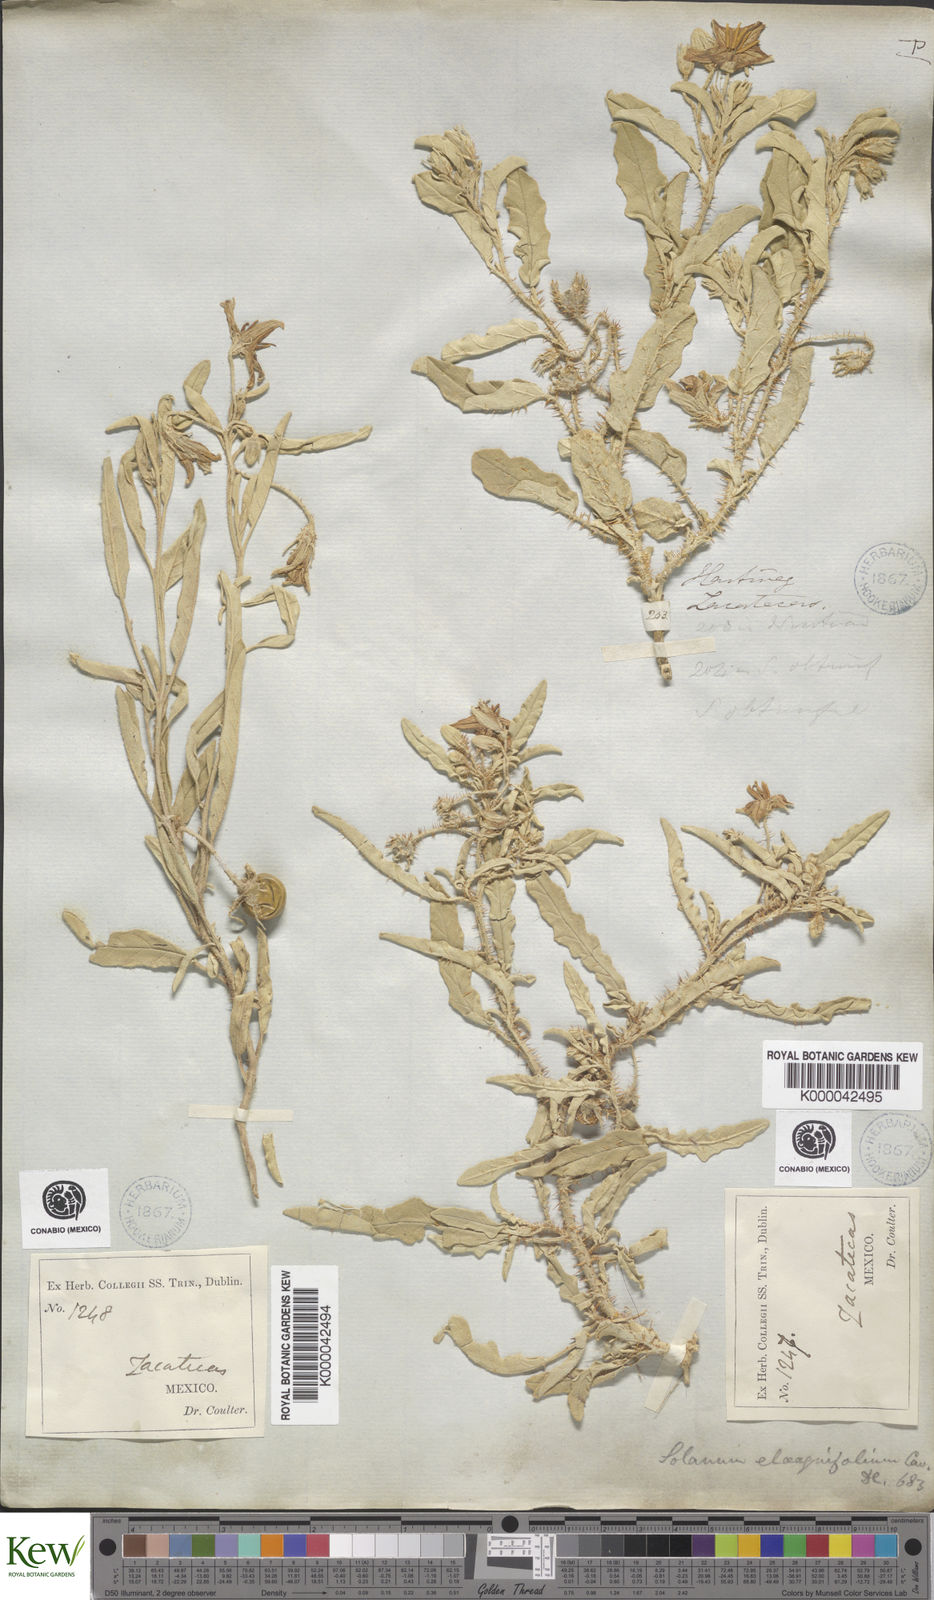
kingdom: Plantae
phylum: Tracheophyta
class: Magnoliopsida
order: Solanales
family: Solanaceae
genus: Solanum
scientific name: Solanum elaeagnifolium
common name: Silverleaf nightshade
